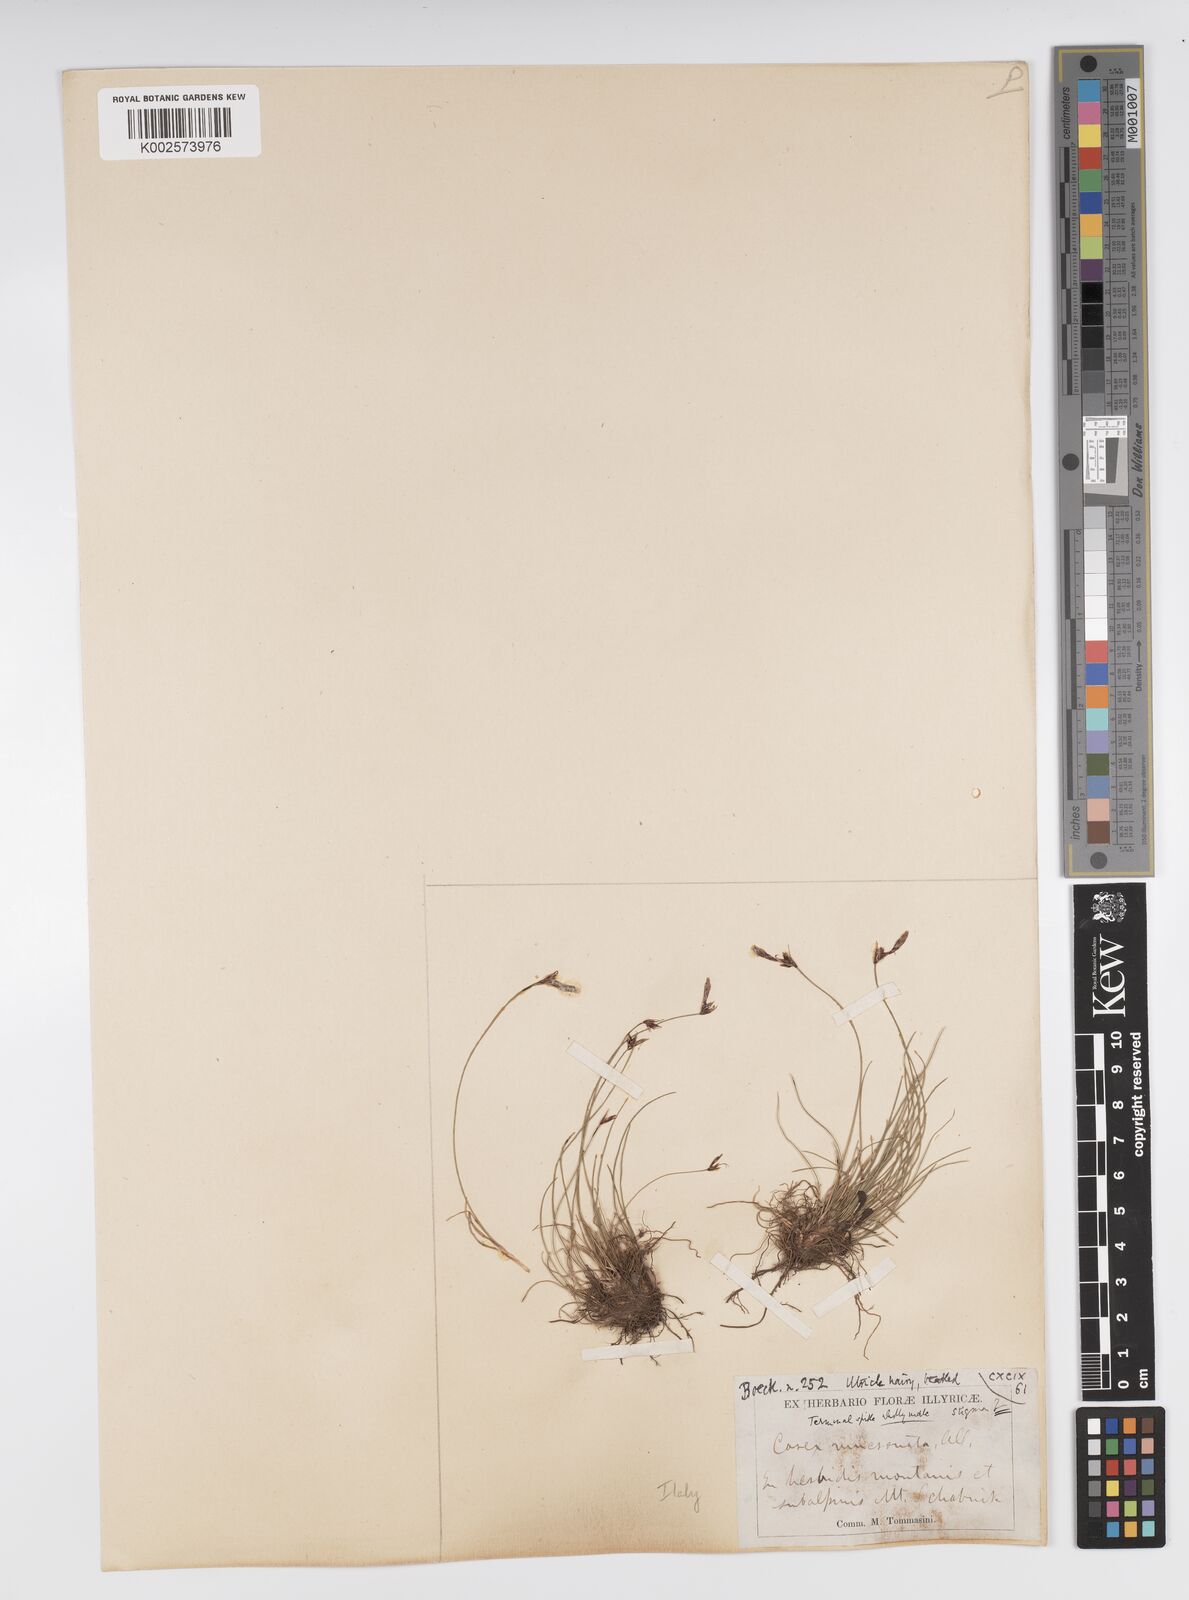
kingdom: Plantae
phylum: Tracheophyta
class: Liliopsida
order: Poales
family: Cyperaceae
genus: Carex
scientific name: Carex mucronata
